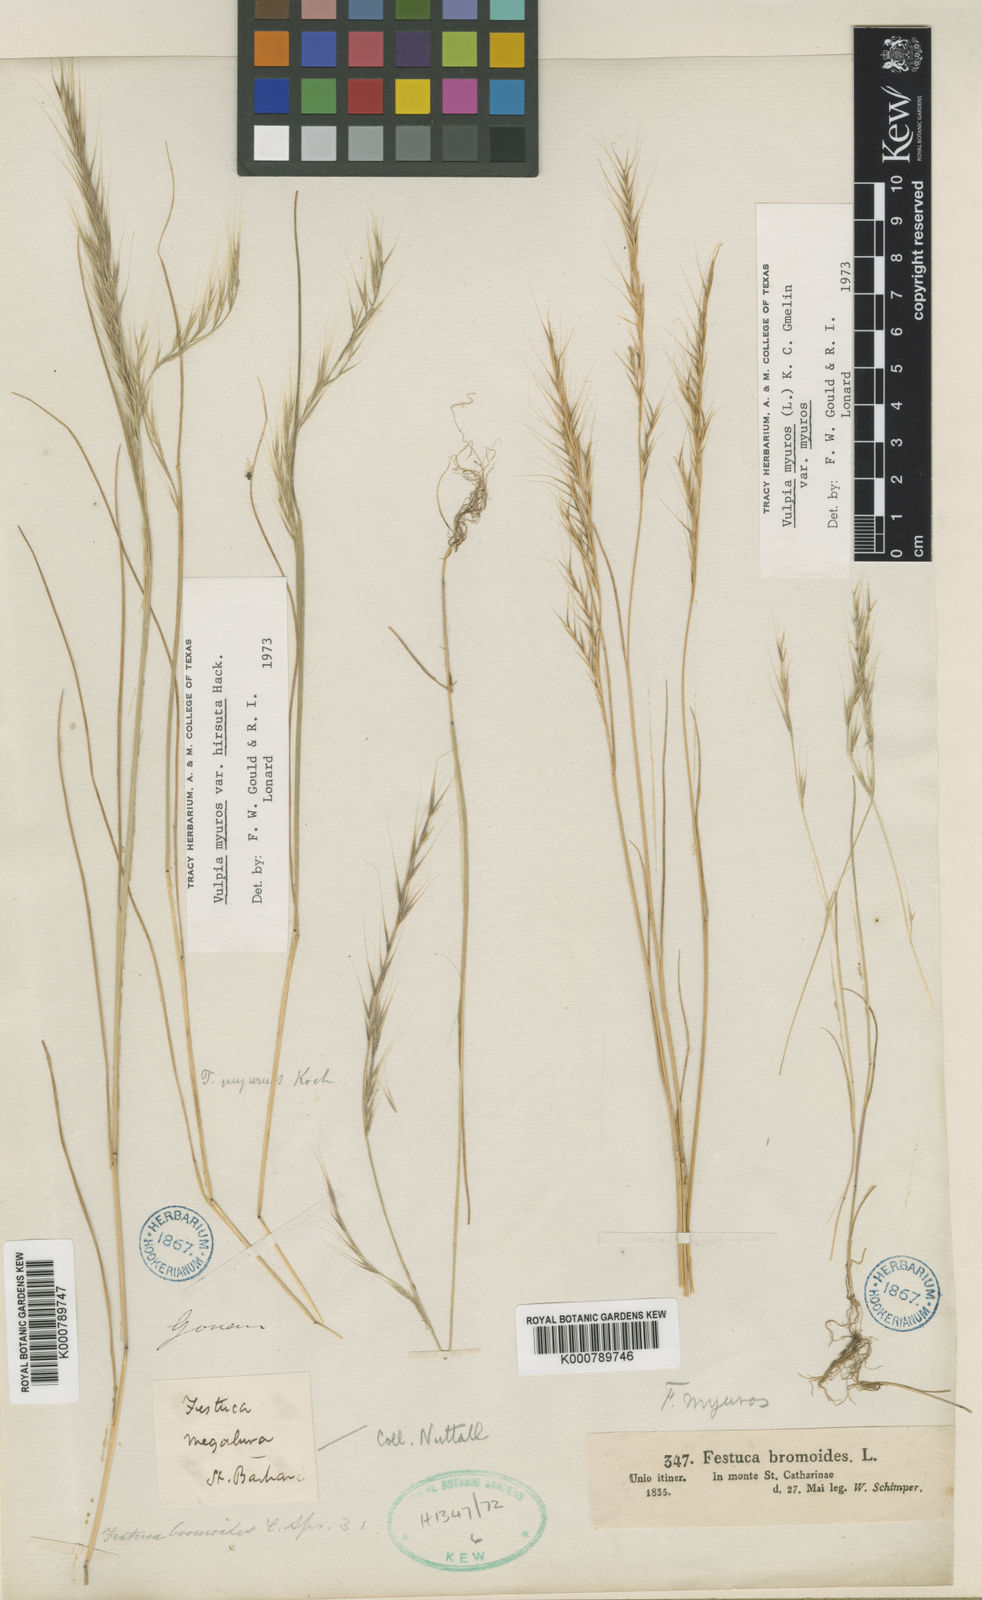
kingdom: Plantae
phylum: Tracheophyta
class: Liliopsida
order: Poales
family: Poaceae
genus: Festuca
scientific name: Festuca myuros
